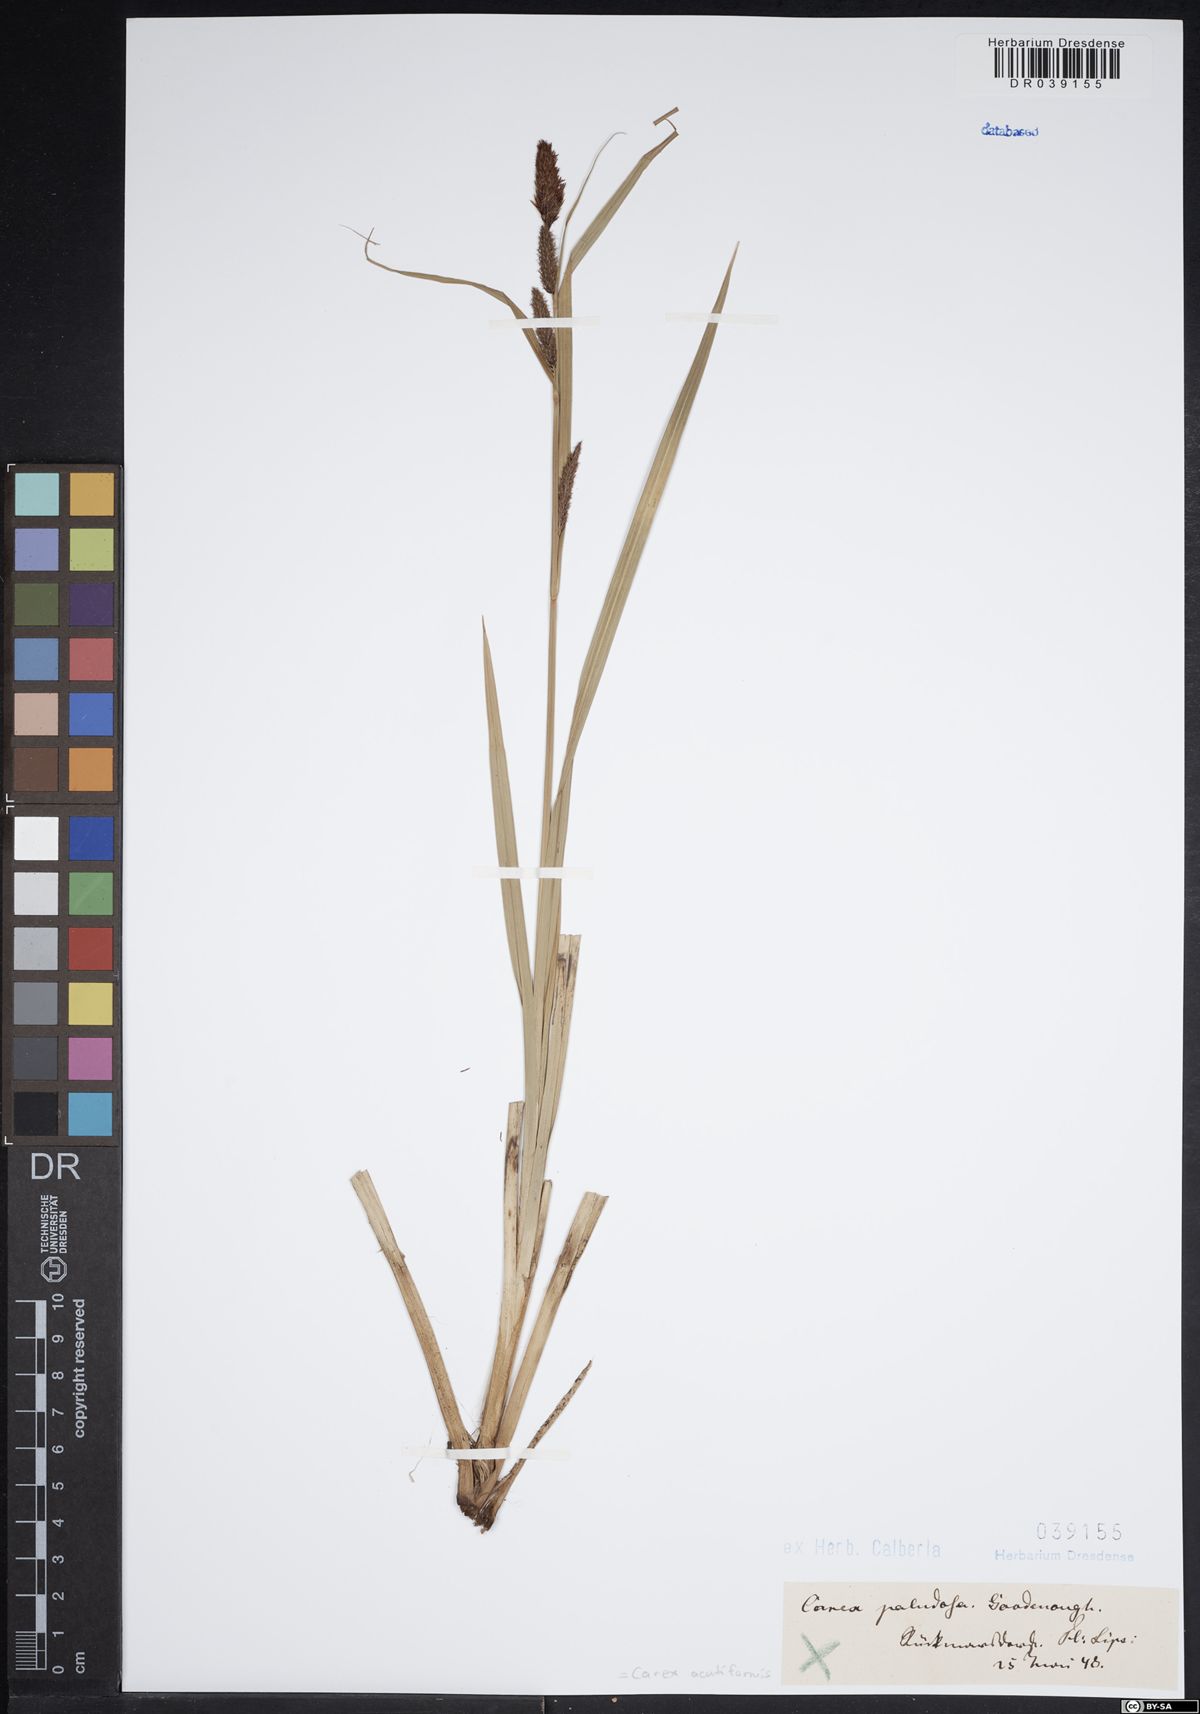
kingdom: Plantae
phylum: Tracheophyta
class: Liliopsida
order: Poales
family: Cyperaceae
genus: Carex
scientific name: Carex acutiformis
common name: Lesser pond-sedge
